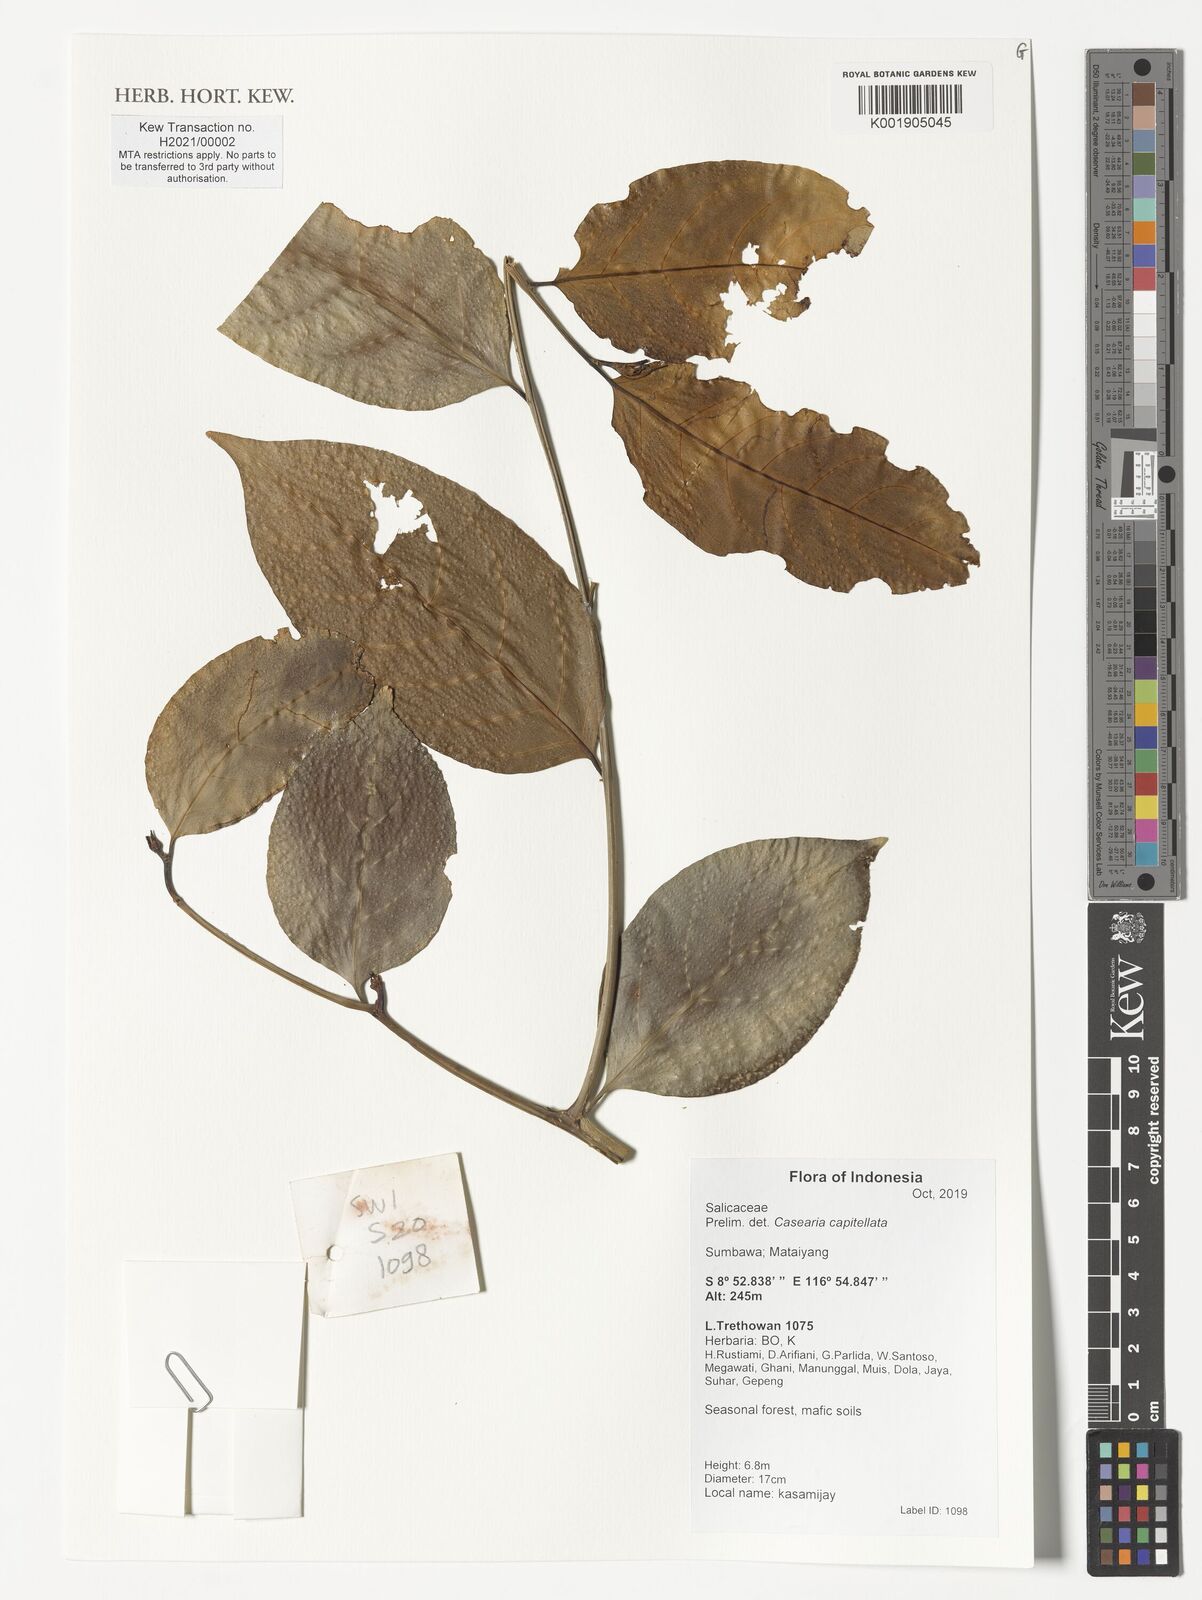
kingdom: Plantae
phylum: Tracheophyta
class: Magnoliopsida
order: Malpighiales
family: Salicaceae
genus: Casearia
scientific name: Casearia capitellata
